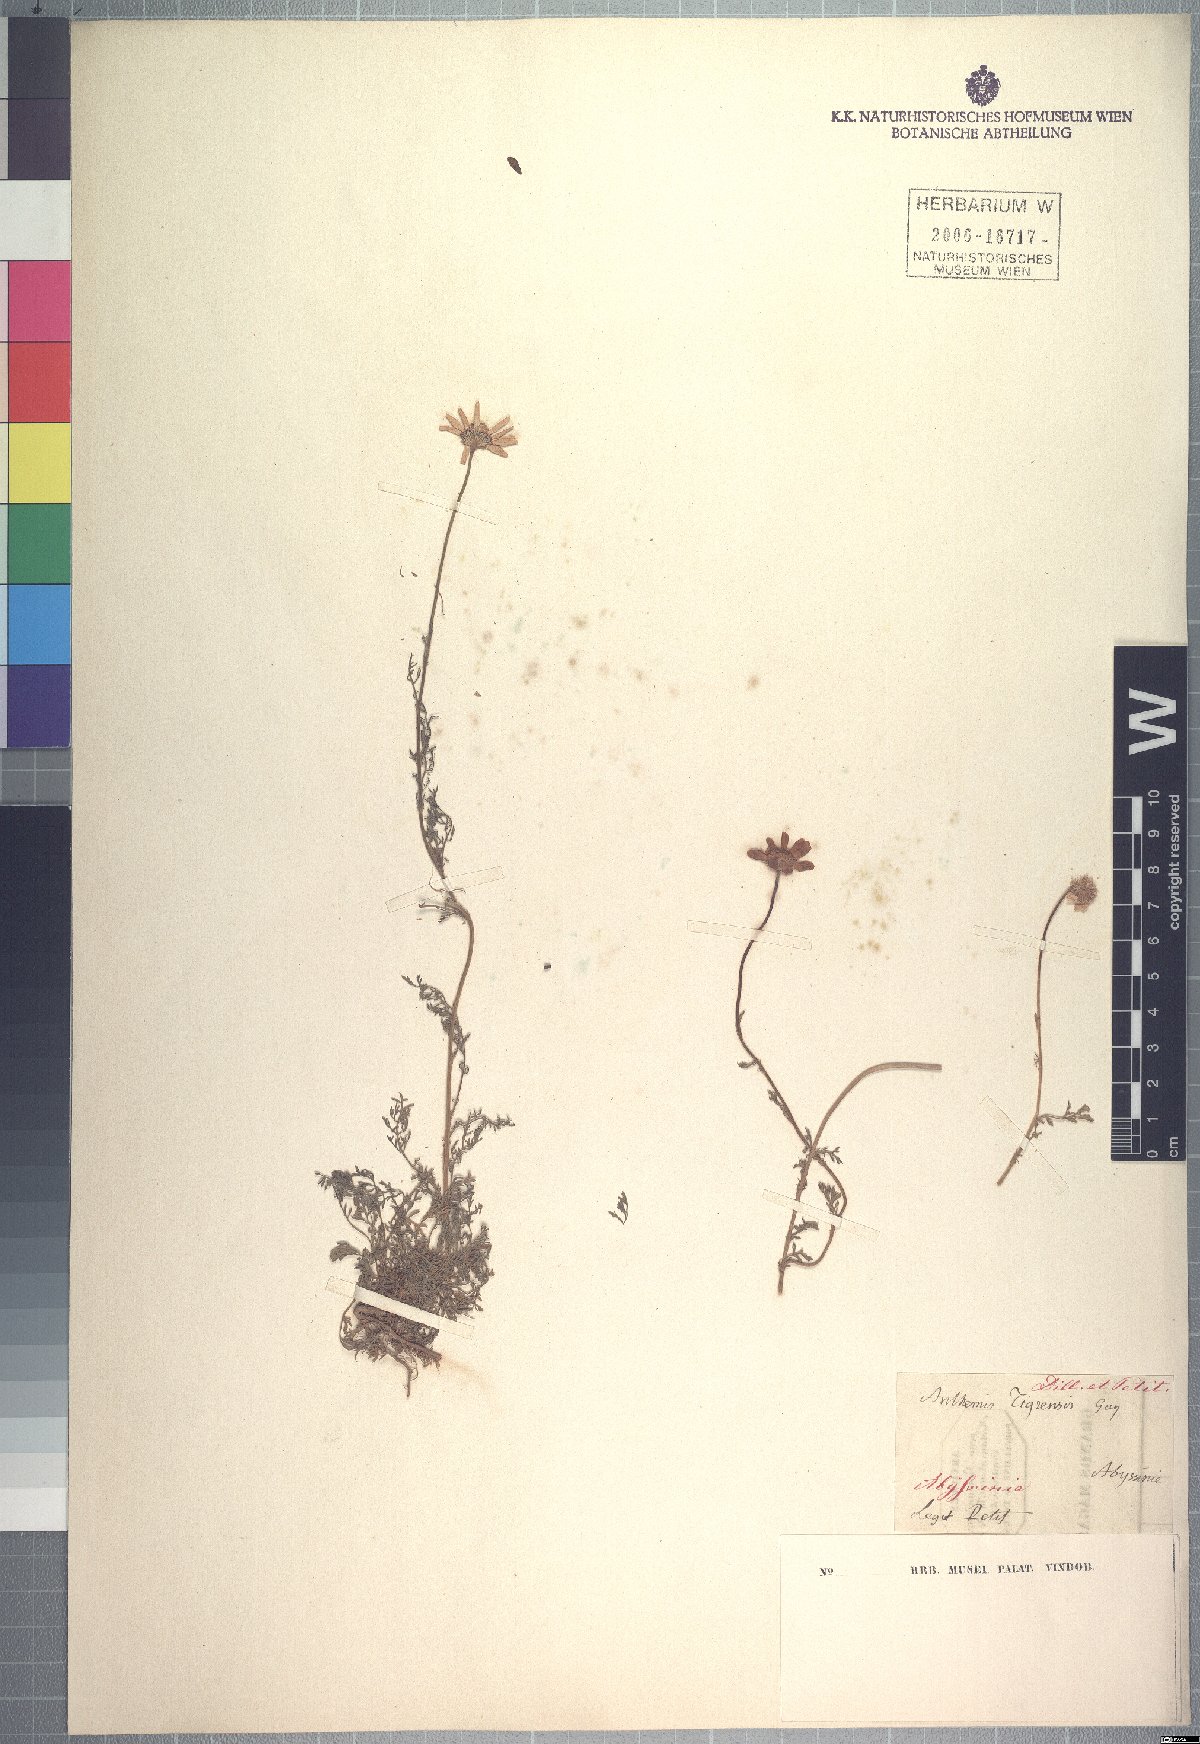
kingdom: Plantae
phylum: Tracheophyta
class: Magnoliopsida
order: Asterales
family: Asteraceae
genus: Anthemis
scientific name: Anthemis tigreensis
